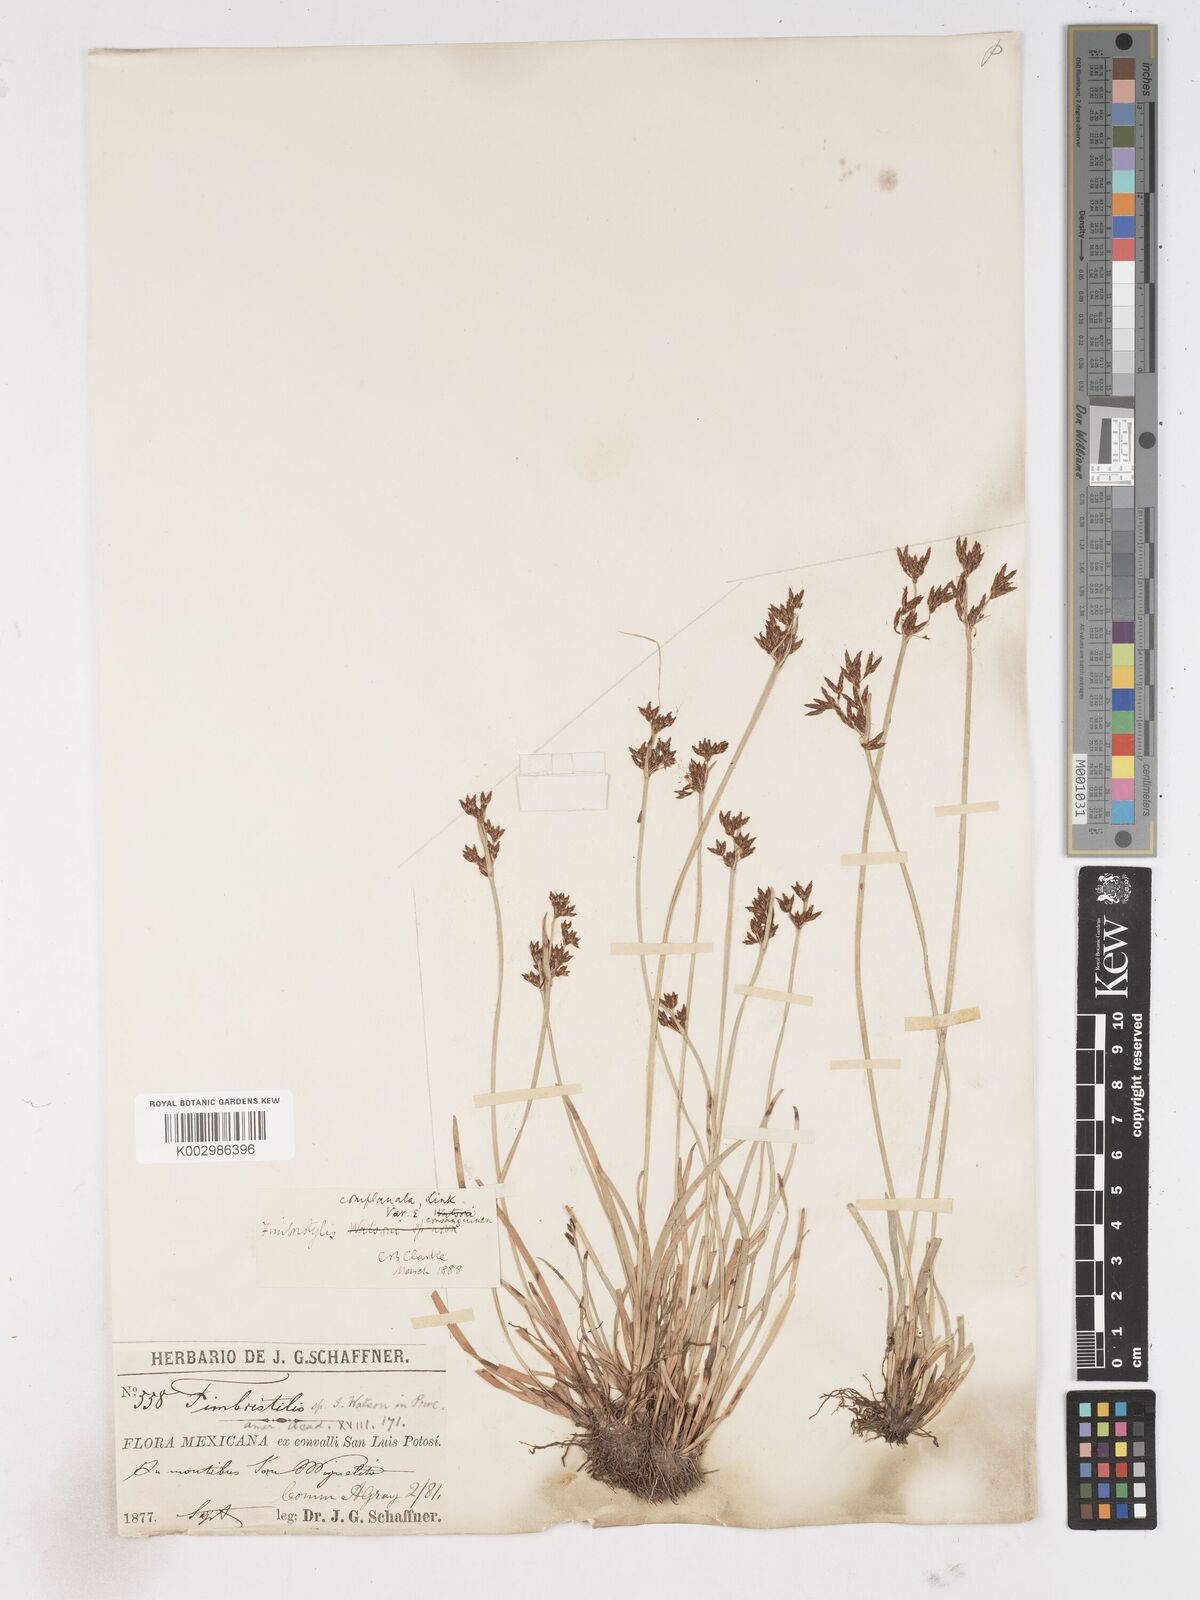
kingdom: Plantae
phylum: Tracheophyta
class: Liliopsida
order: Poales
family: Cyperaceae
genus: Fimbristylis
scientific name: Fimbristylis complanata
